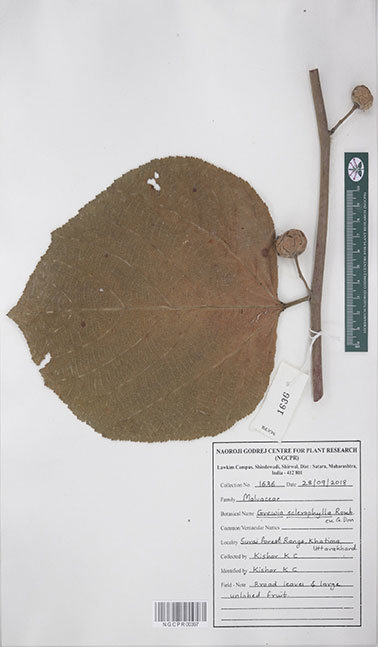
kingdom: Plantae
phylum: Tracheophyta
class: Magnoliopsida
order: Malvales
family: Malvaceae
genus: Grewia
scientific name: Grewia sclerophylla
